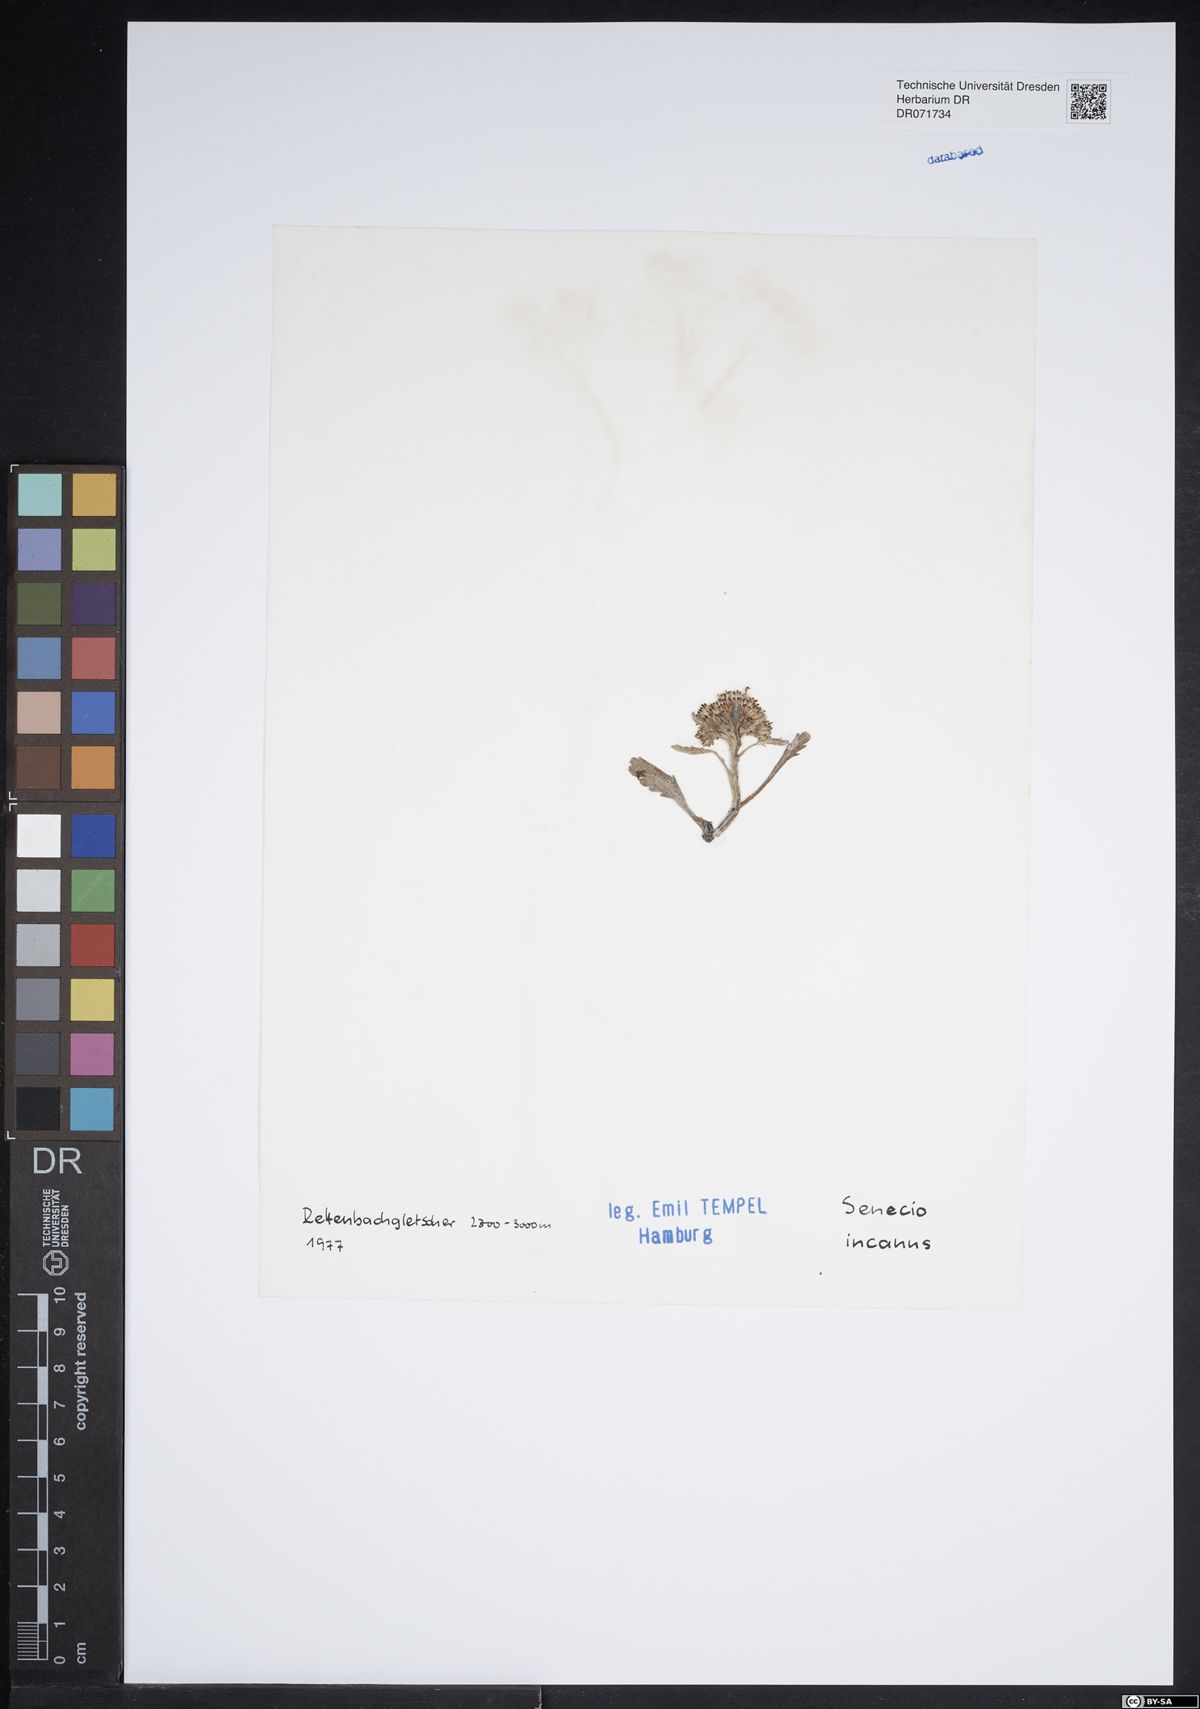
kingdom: Plantae
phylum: Tracheophyta
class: Magnoliopsida
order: Asterales
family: Asteraceae
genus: Jacobaea
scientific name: Jacobaea incana
